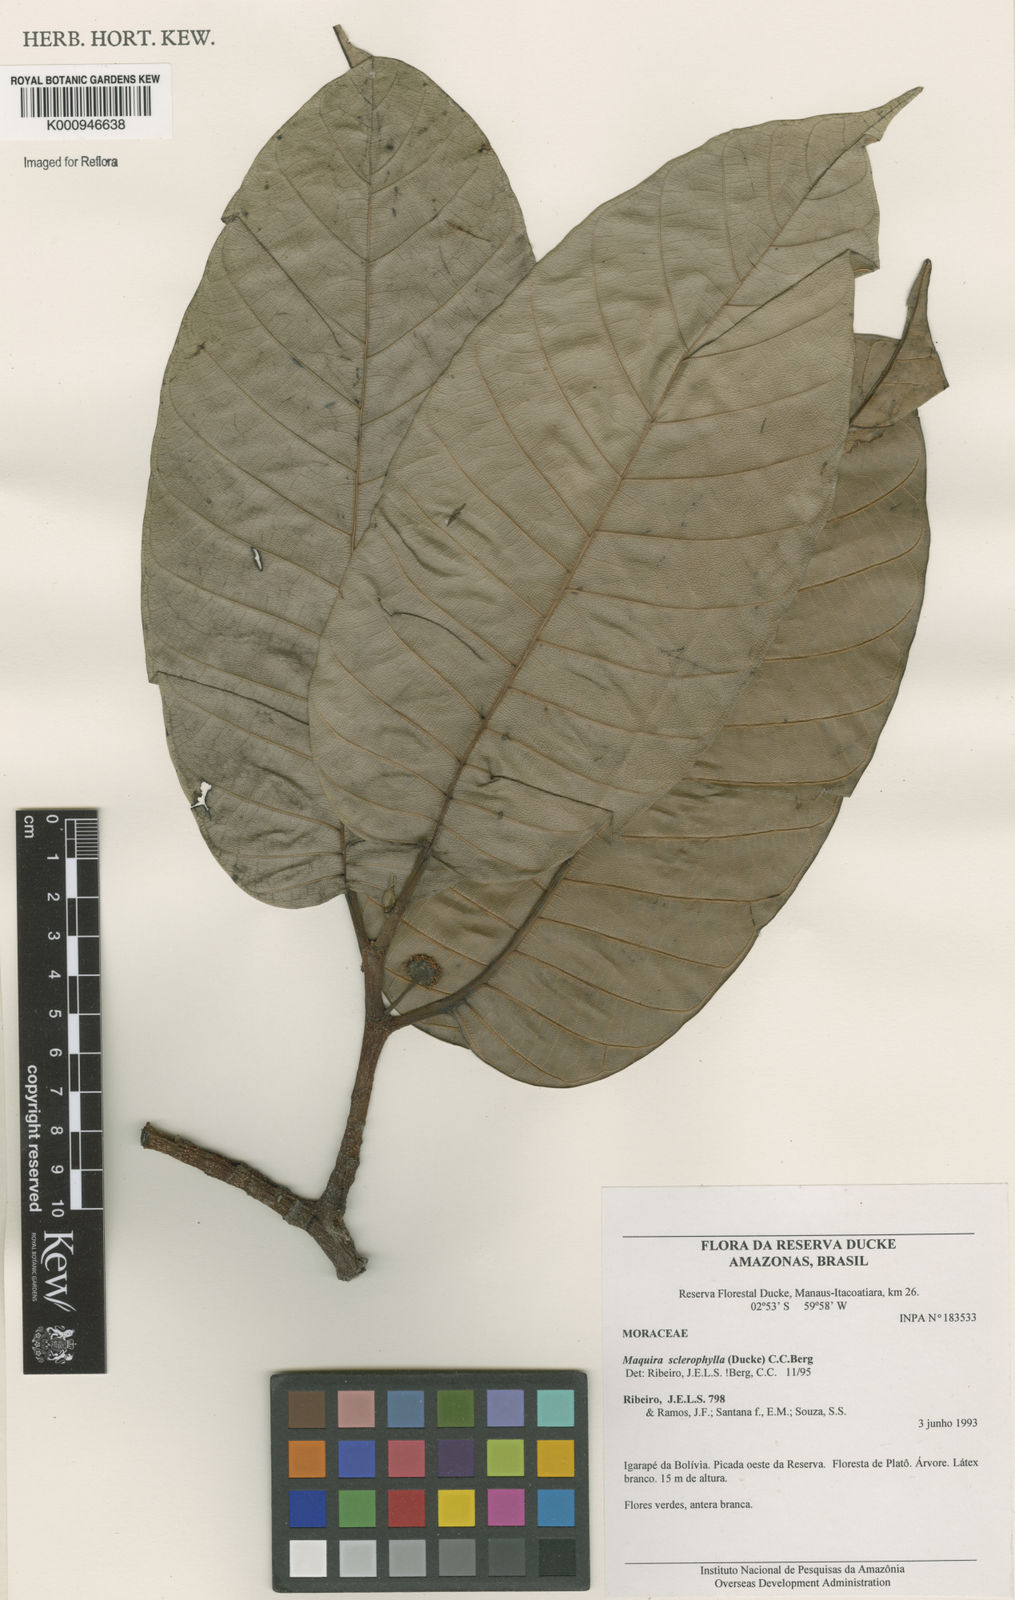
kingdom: Plantae
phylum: Tracheophyta
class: Magnoliopsida
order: Rosales
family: Moraceae
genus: Maquira
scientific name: Maquira sclerophylla
